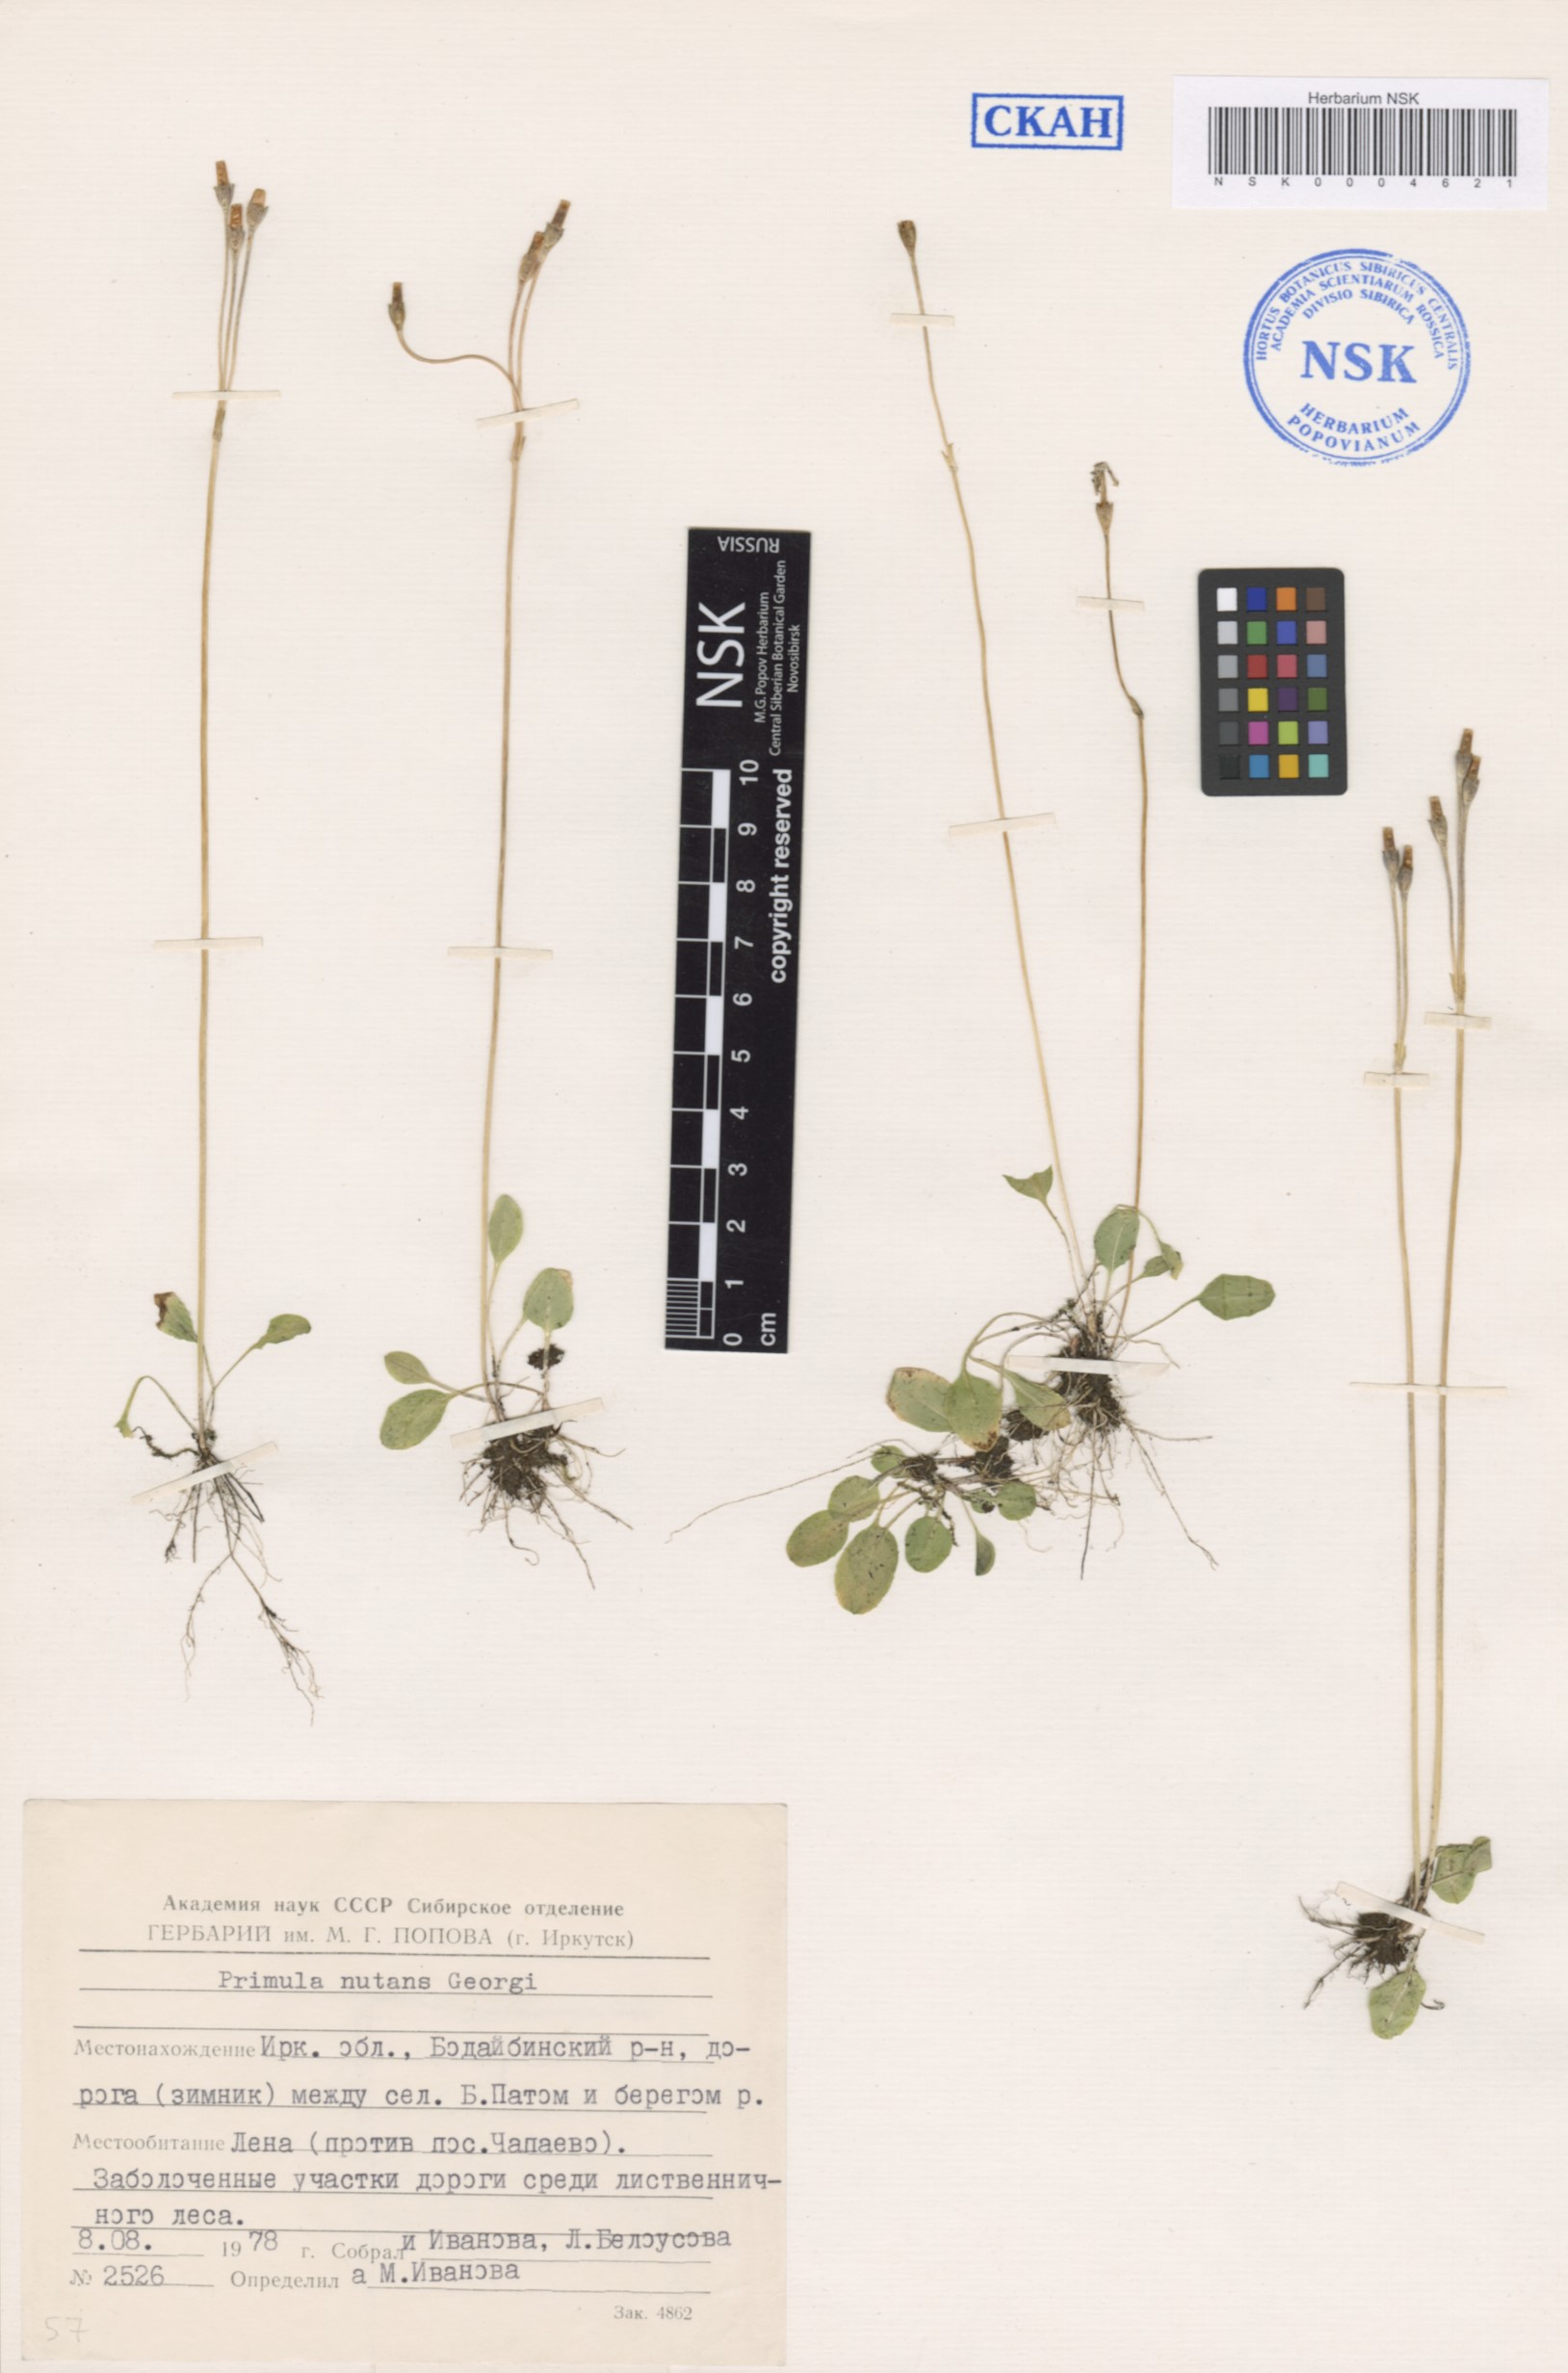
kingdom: Plantae
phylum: Tracheophyta
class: Magnoliopsida
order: Ericales
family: Primulaceae
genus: Primula
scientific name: Primula nutans
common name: Siberian primrose
